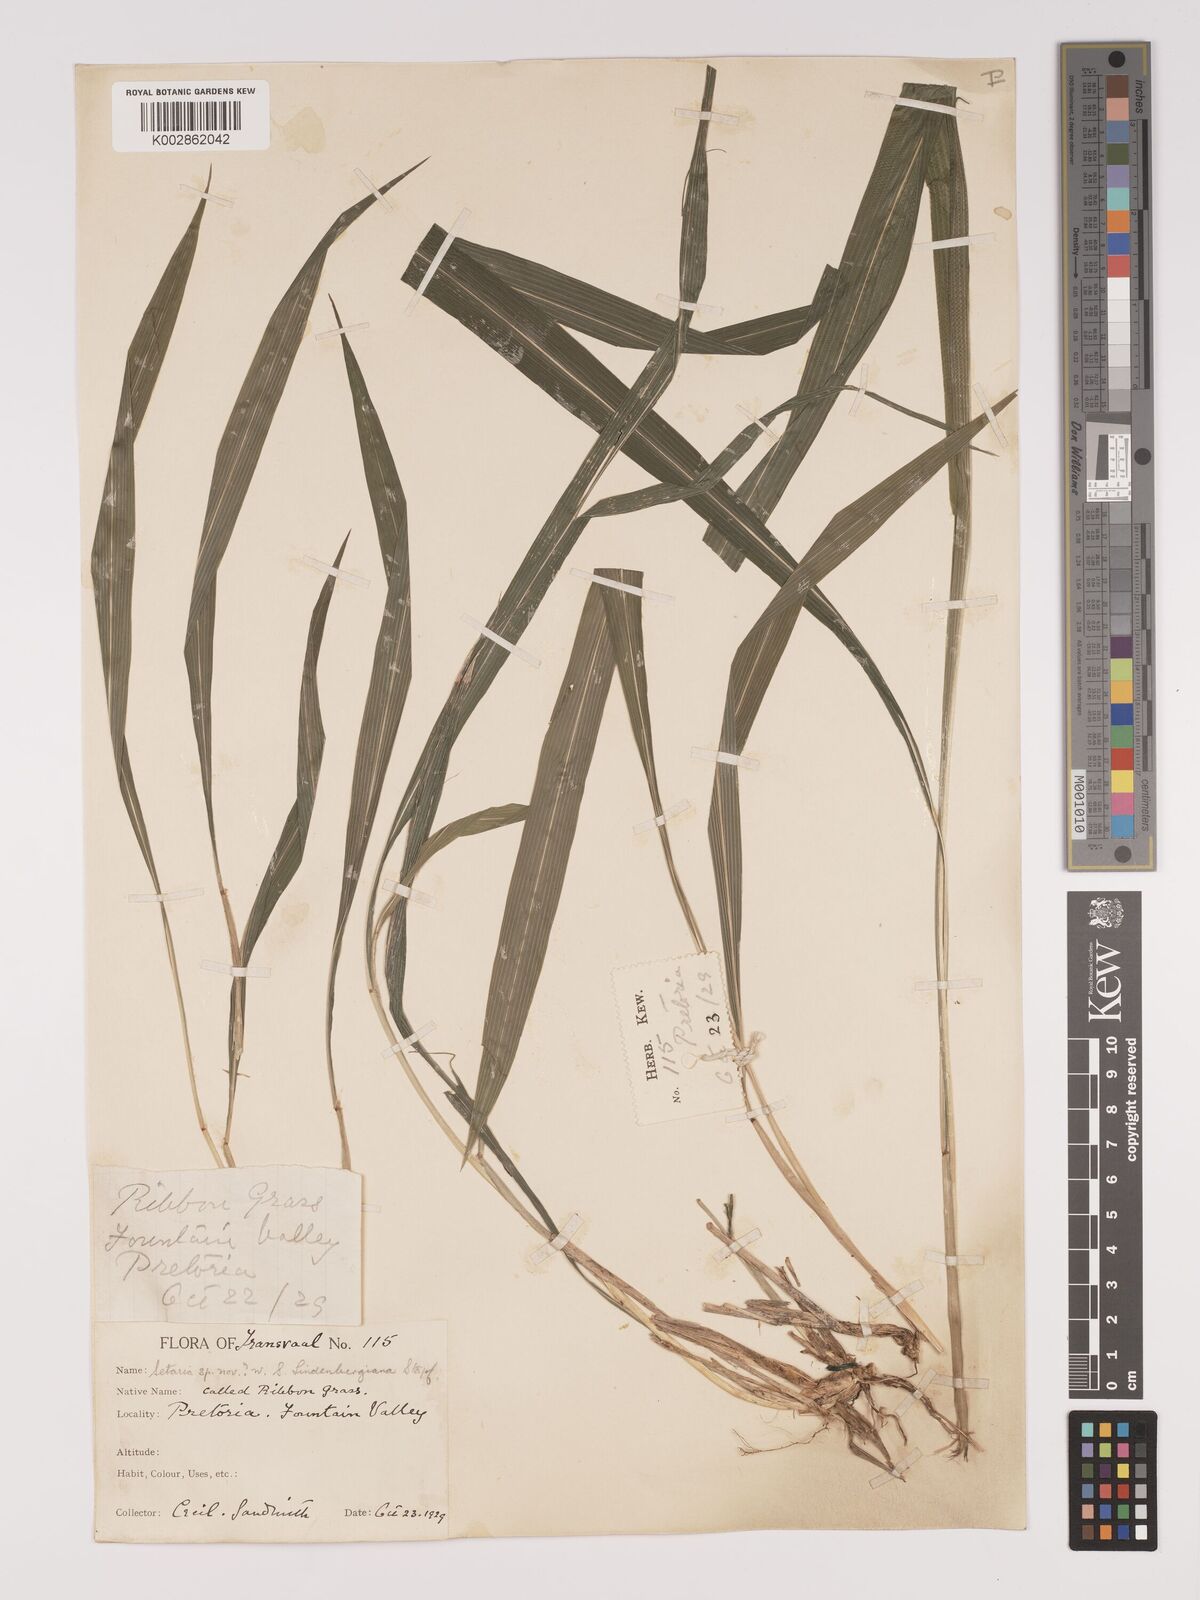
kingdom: Plantae
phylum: Tracheophyta
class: Liliopsida
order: Poales
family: Poaceae
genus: Setaria
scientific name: Setaria megaphylla
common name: Bigleaf bristlegrass
